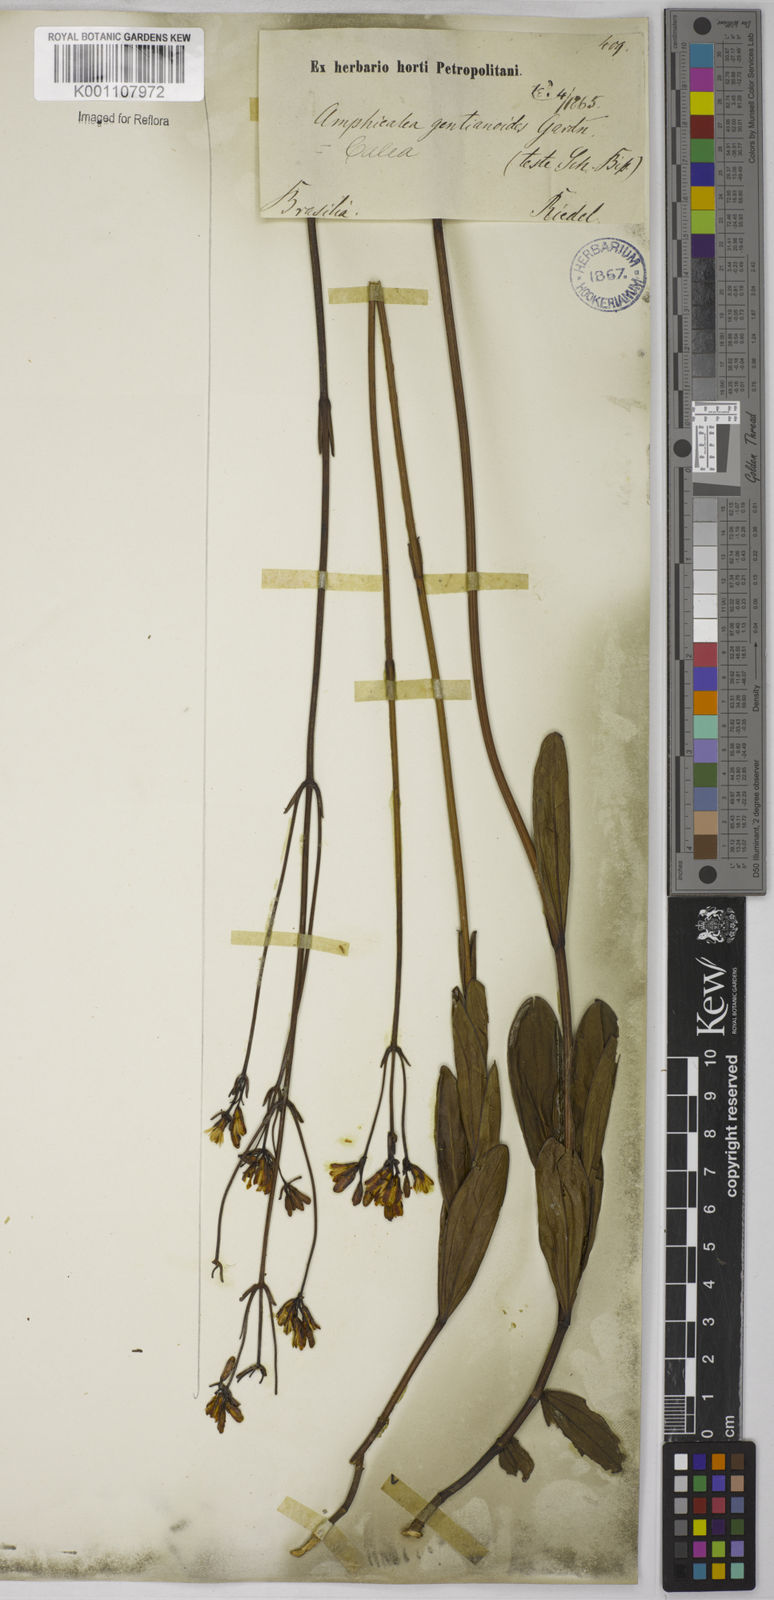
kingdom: Plantae
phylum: Tracheophyta
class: Magnoliopsida
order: Asterales
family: Asteraceae
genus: Calea
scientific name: Calea gentianoides
